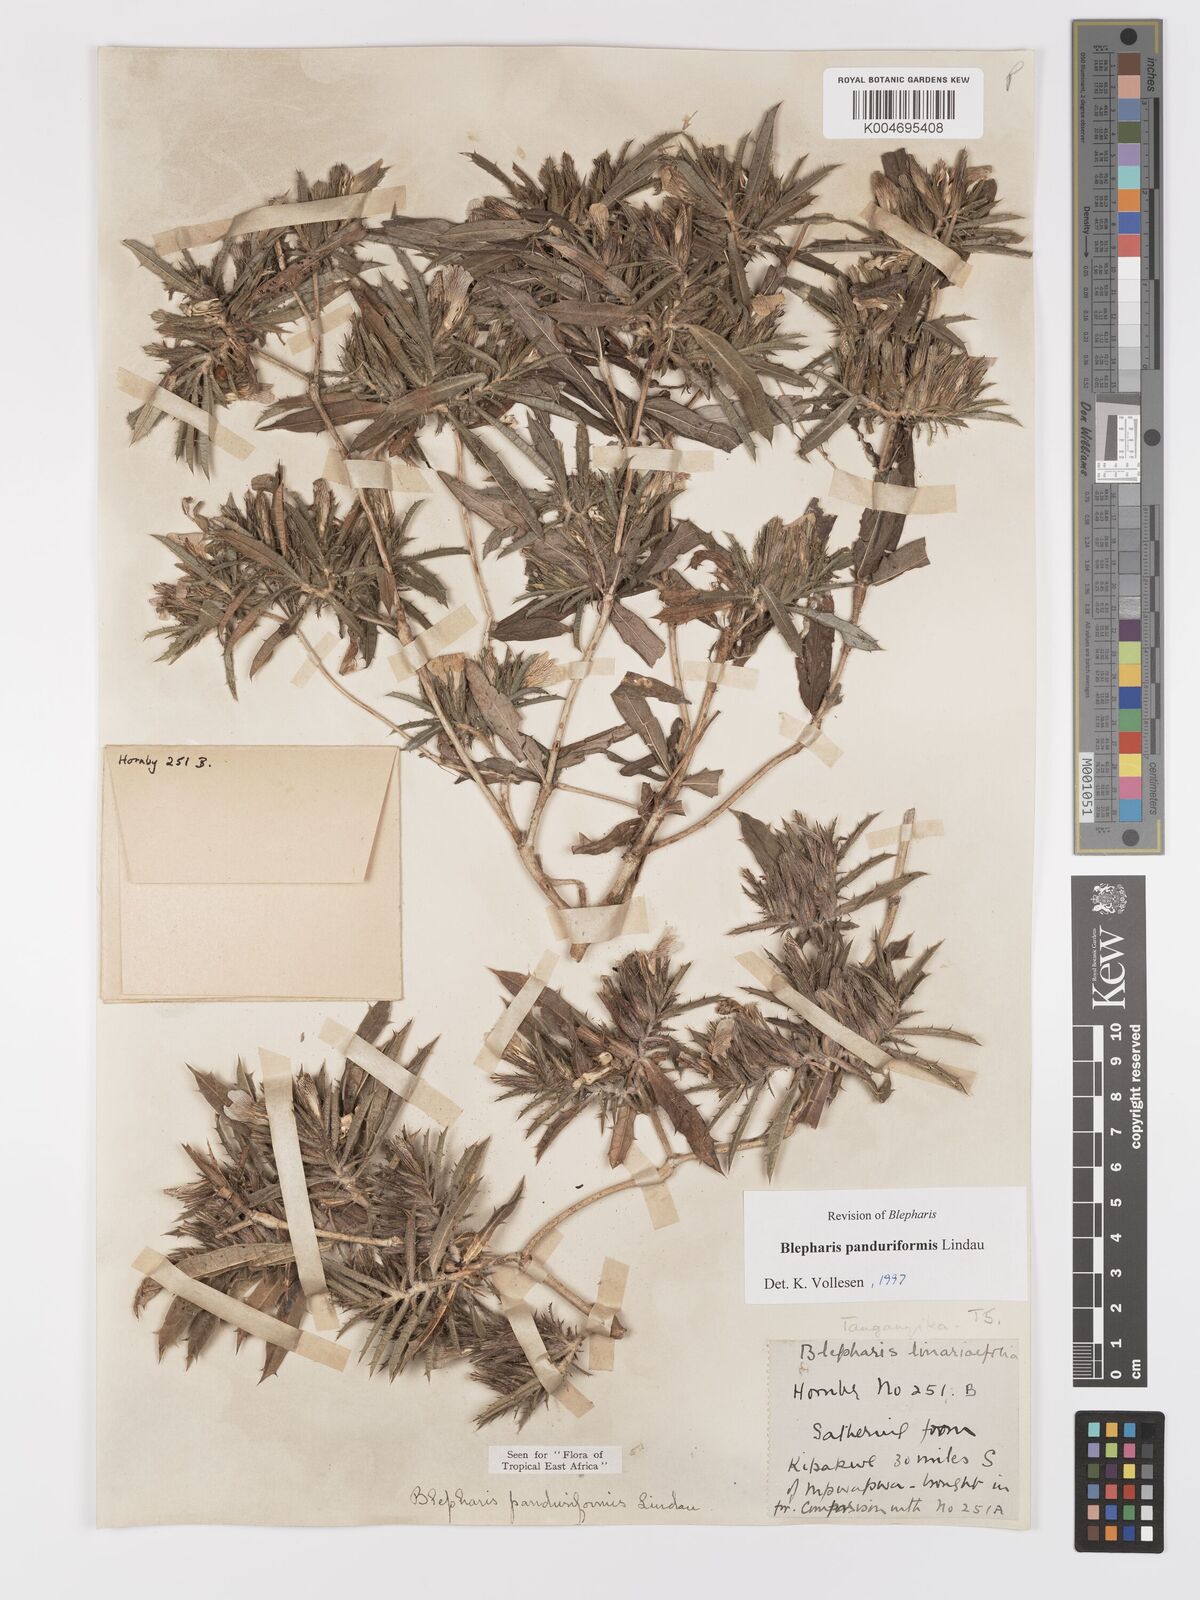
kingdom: Plantae
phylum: Tracheophyta
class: Magnoliopsida
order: Lamiales
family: Acanthaceae
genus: Blepharis
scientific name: Blepharis panduriformis
